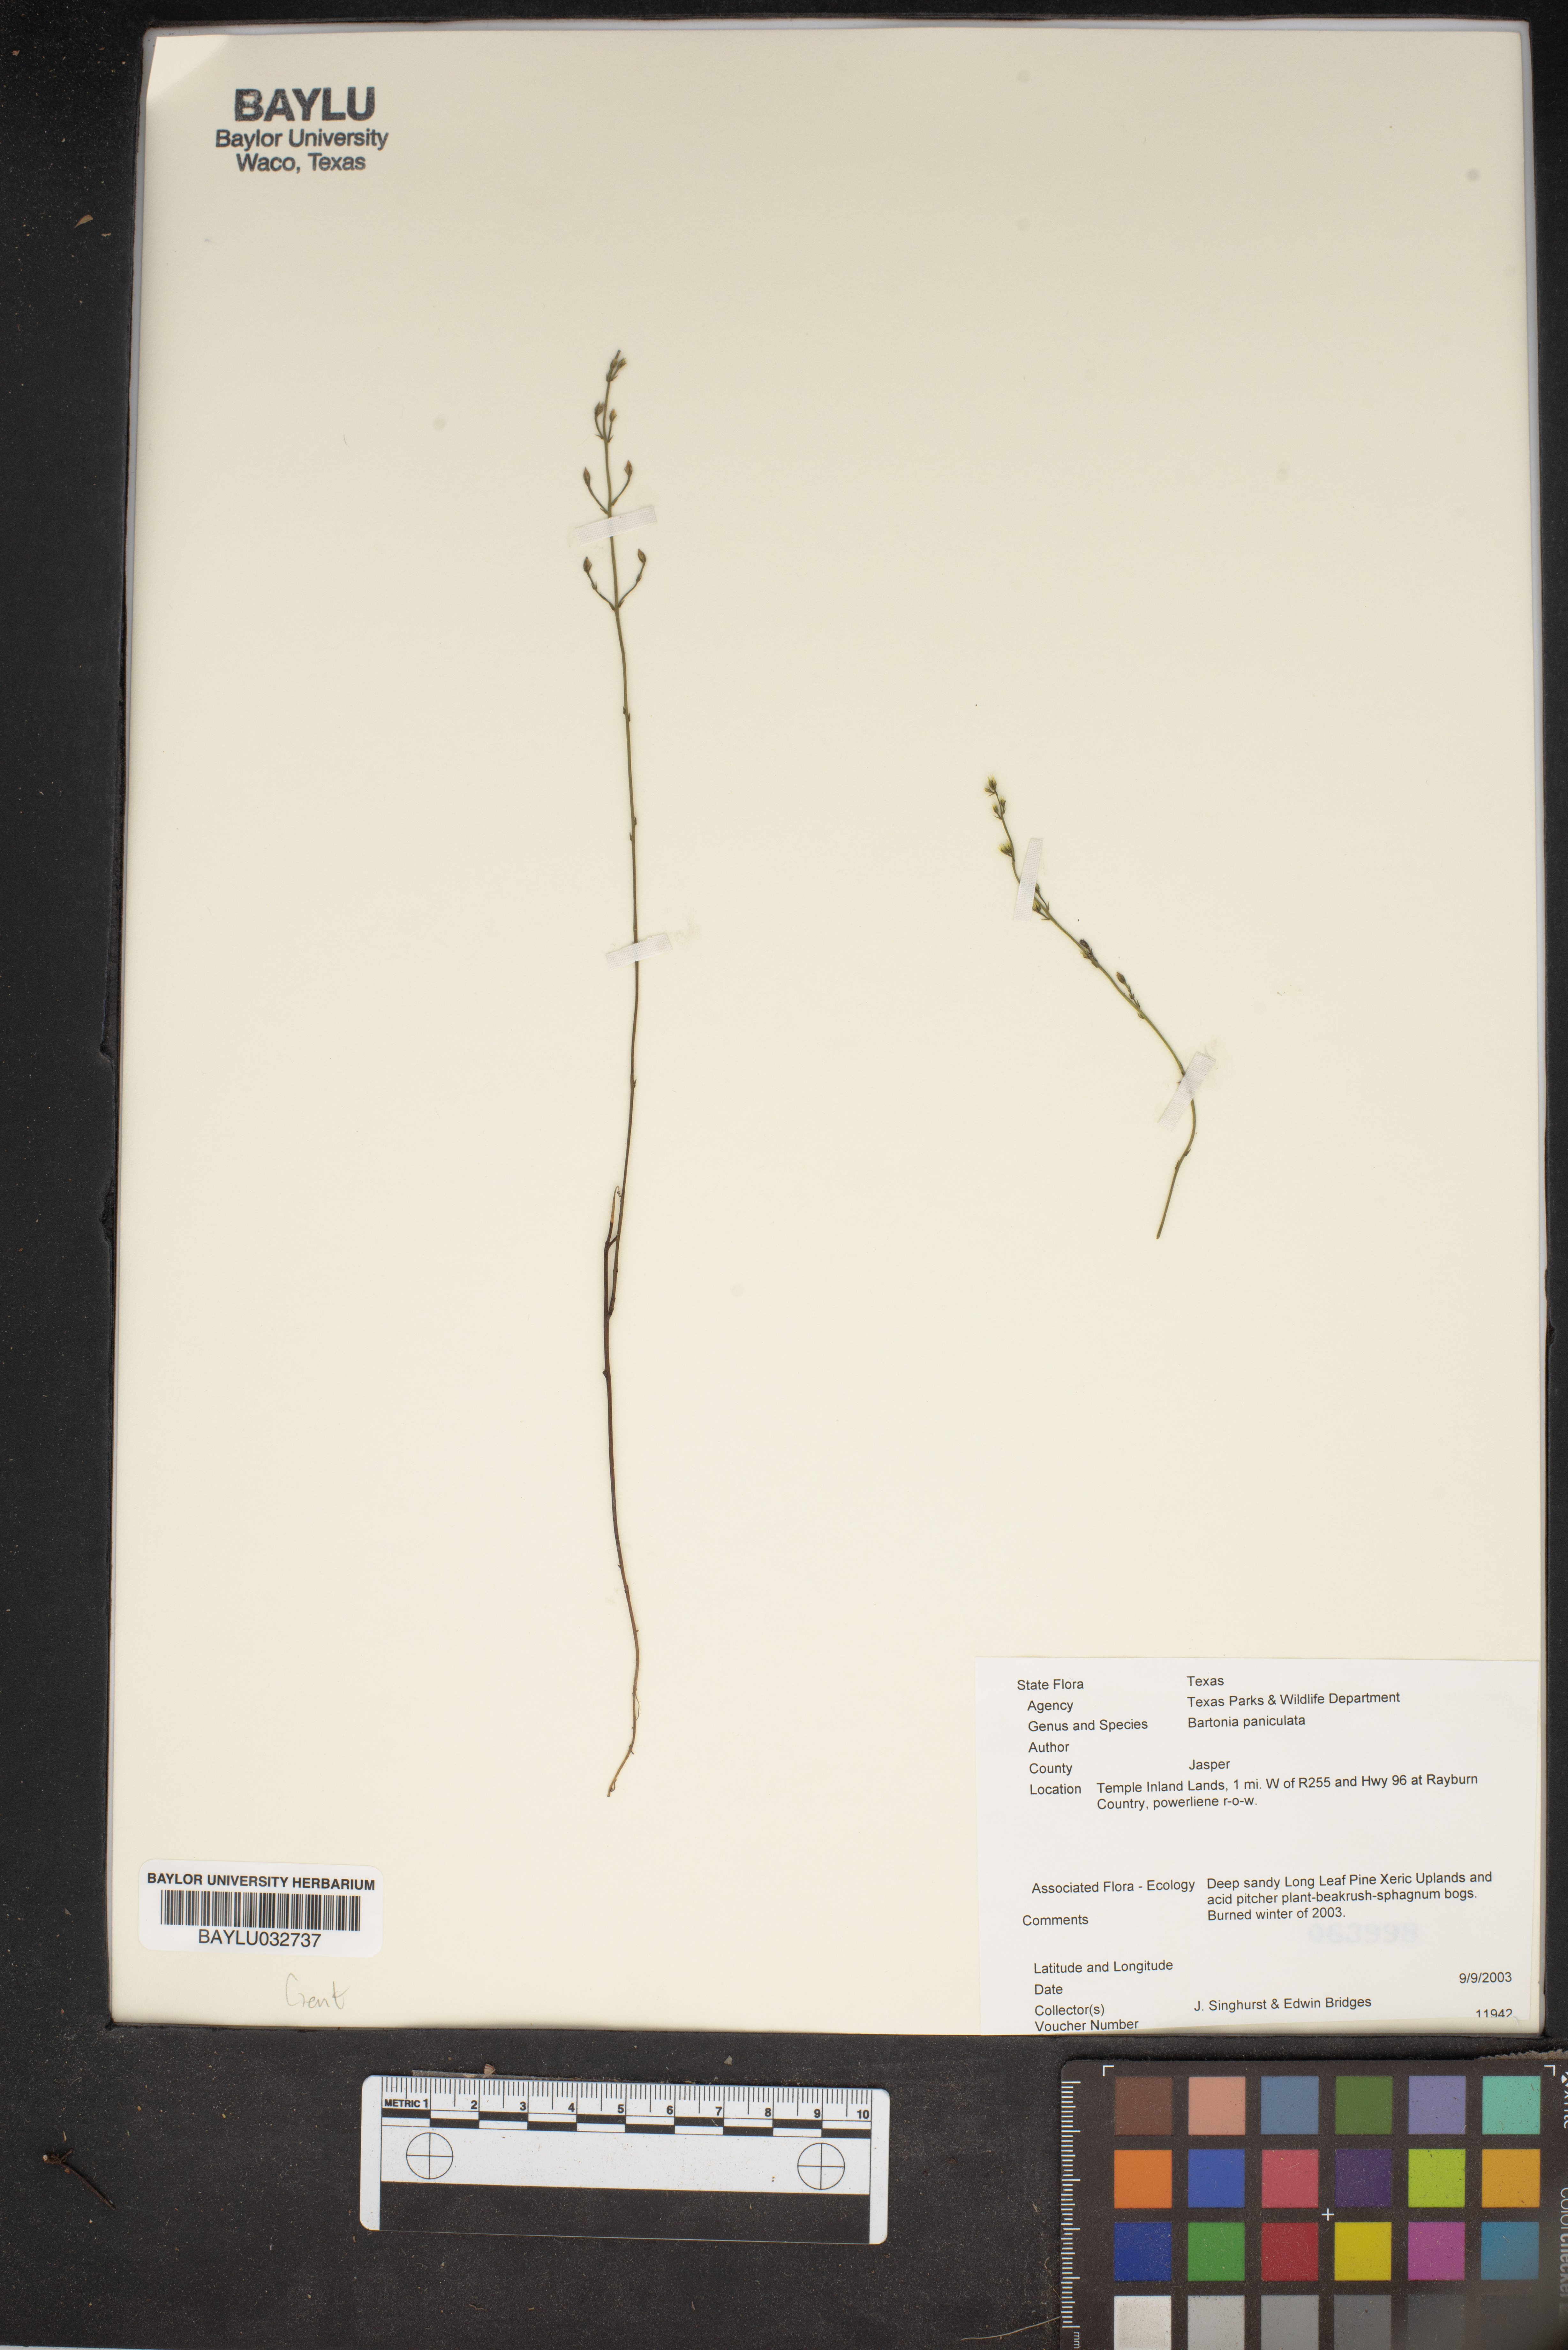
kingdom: Plantae
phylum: Tracheophyta
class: Magnoliopsida
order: Gentianales
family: Gentianaceae
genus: Bartonia
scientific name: Bartonia paniculata
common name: Branched bartonia
